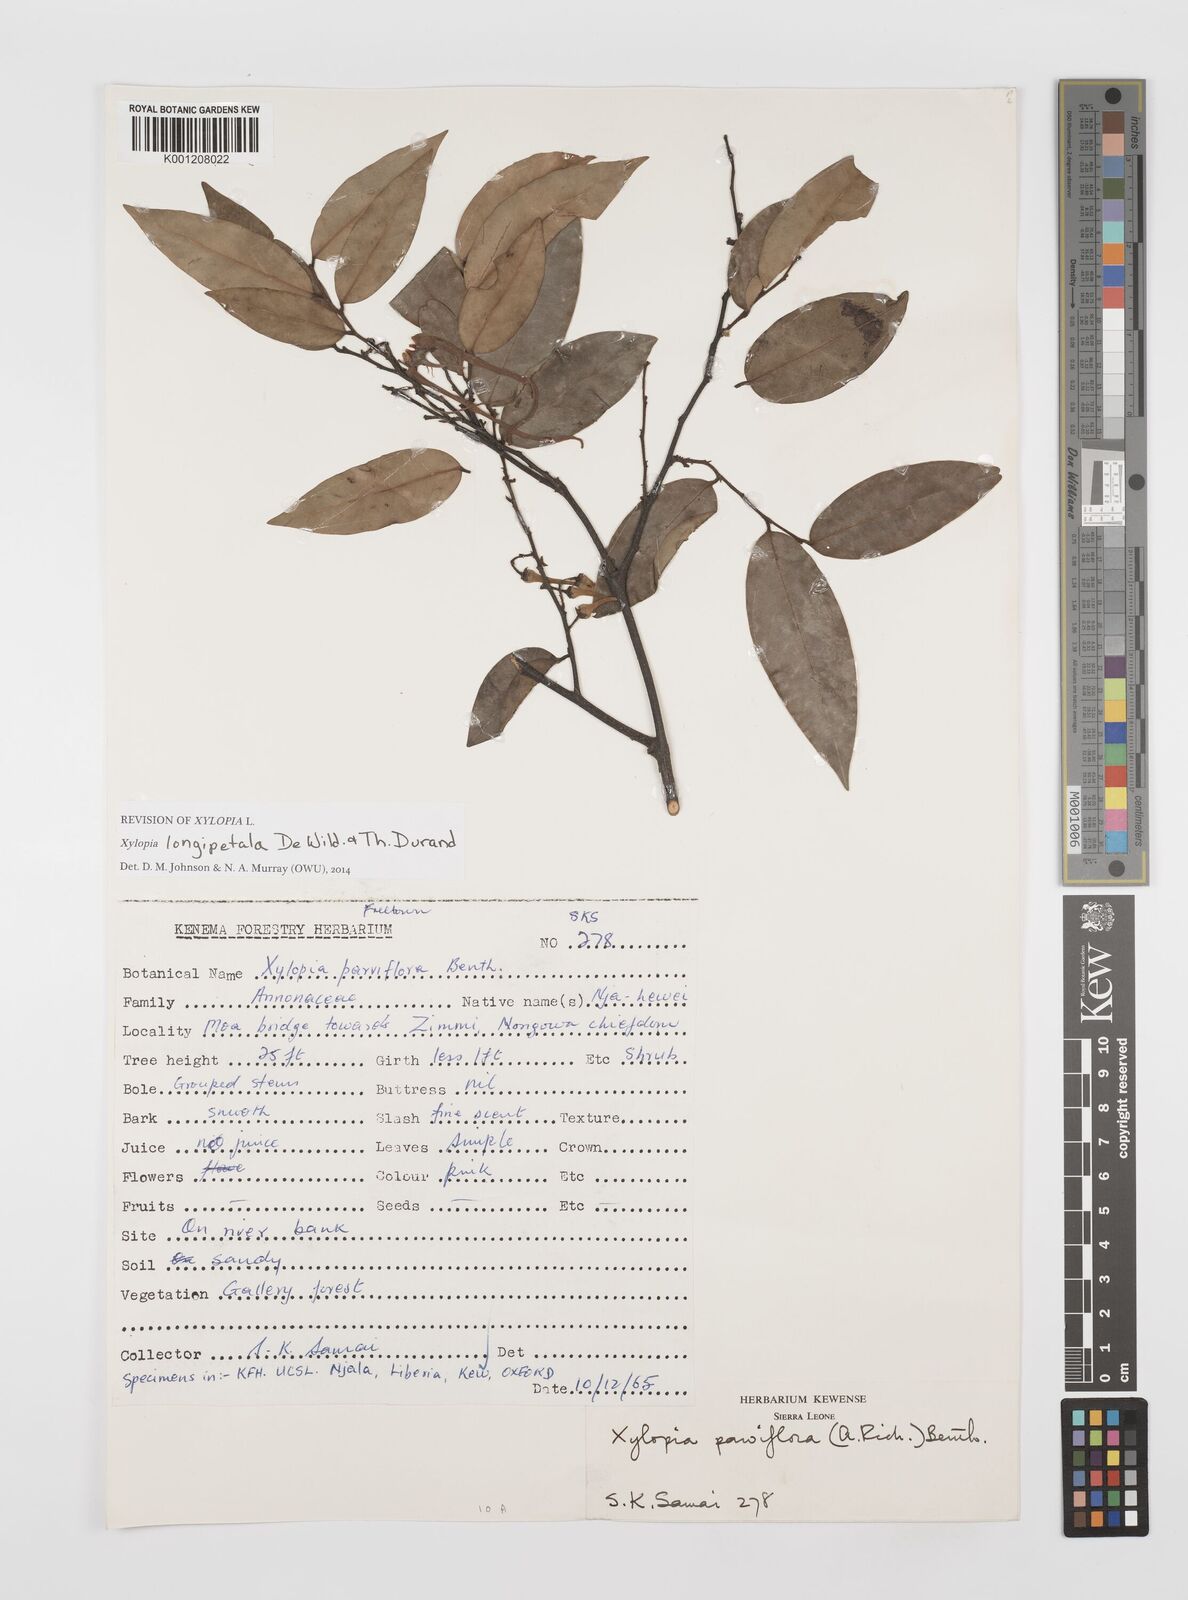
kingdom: Plantae
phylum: Tracheophyta
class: Magnoliopsida
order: Magnoliales
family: Annonaceae
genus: Xylopia
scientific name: Xylopia parviflora
